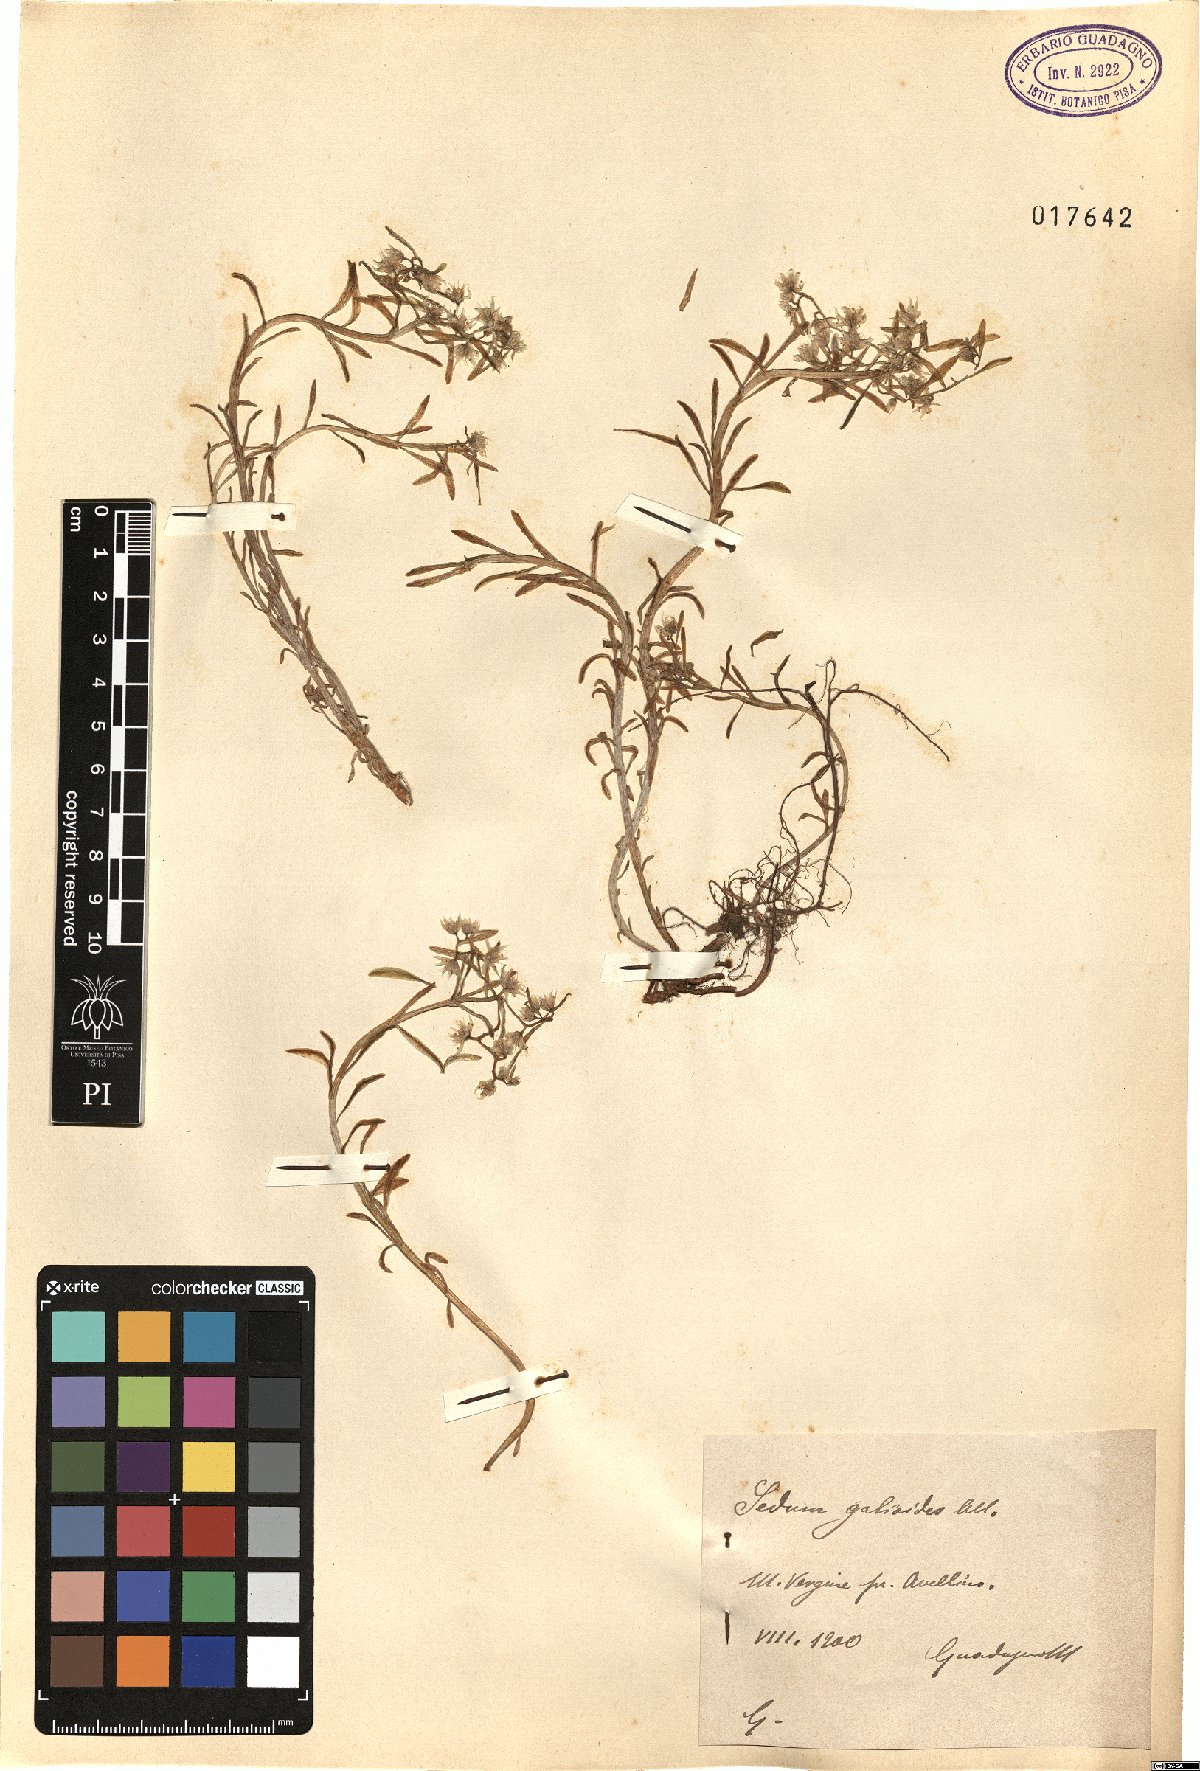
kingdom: Plantae
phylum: Tracheophyta
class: Magnoliopsida
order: Saxifragales
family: Crassulaceae
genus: Sedum
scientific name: Sedum cepaea
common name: Pink stonecrop
